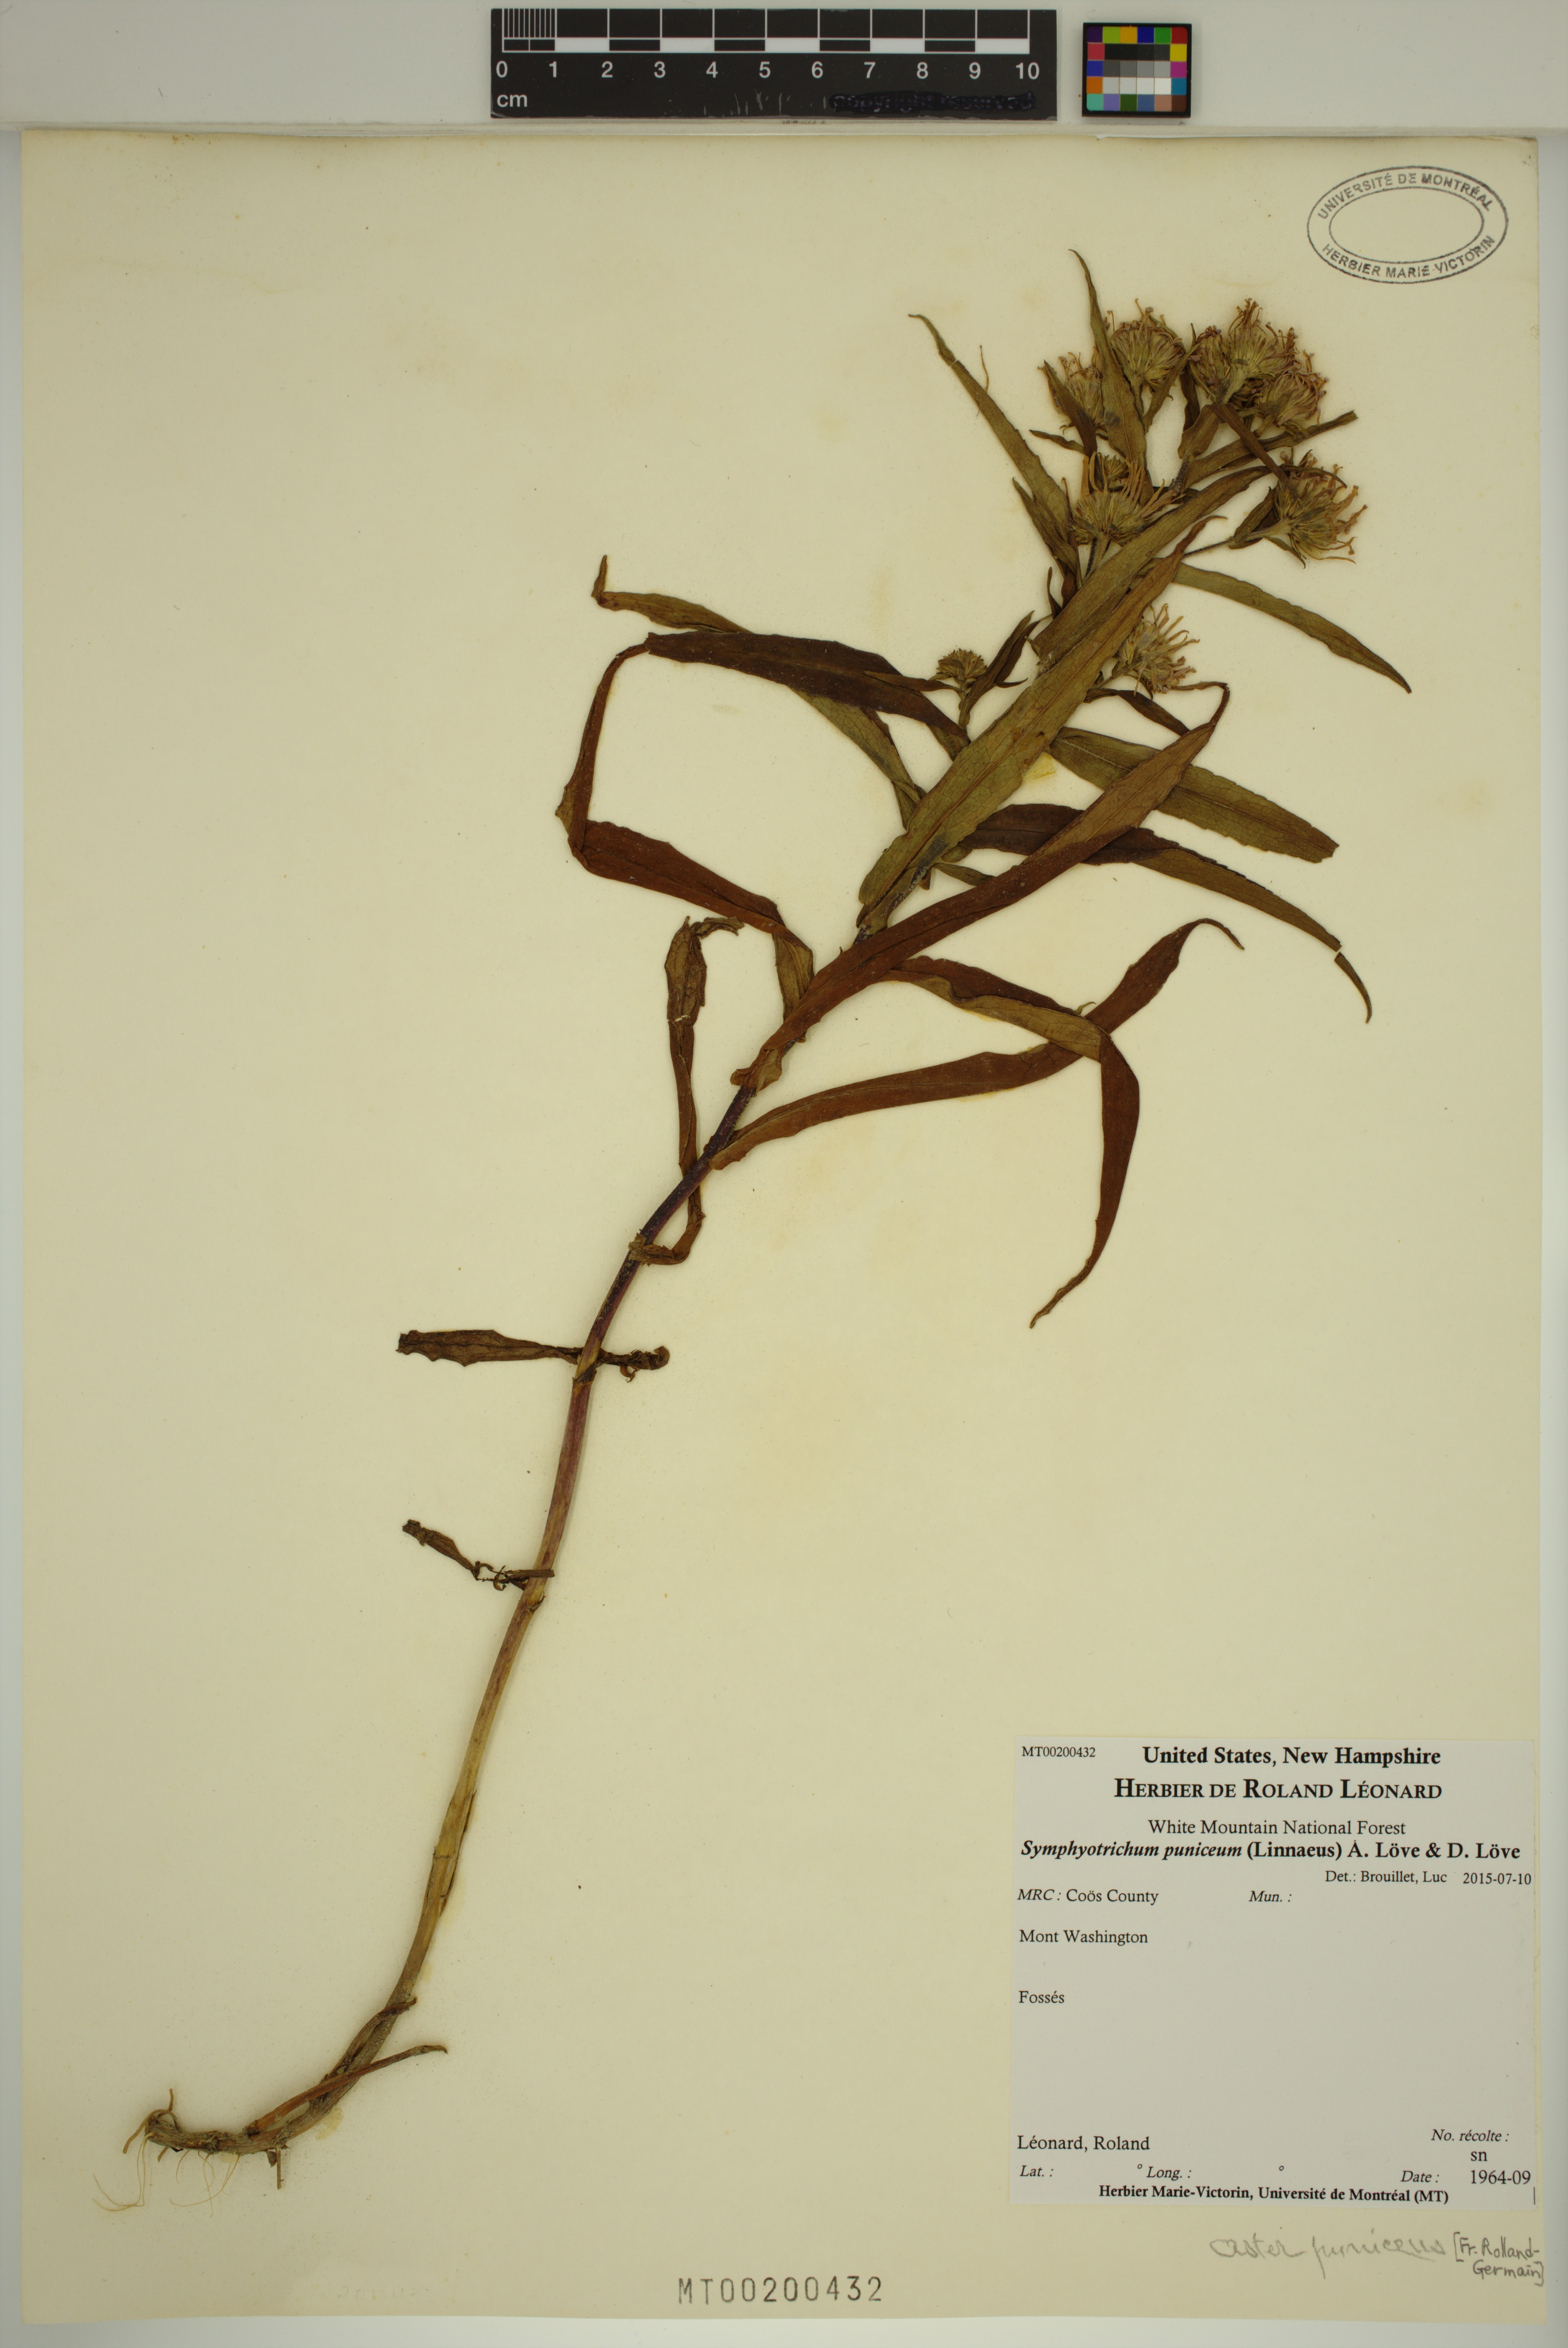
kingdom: Plantae
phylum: Tracheophyta
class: Magnoliopsida
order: Asterales
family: Asteraceae
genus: Symphyotrichum
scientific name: Symphyotrichum puniceum
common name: Bog aster
